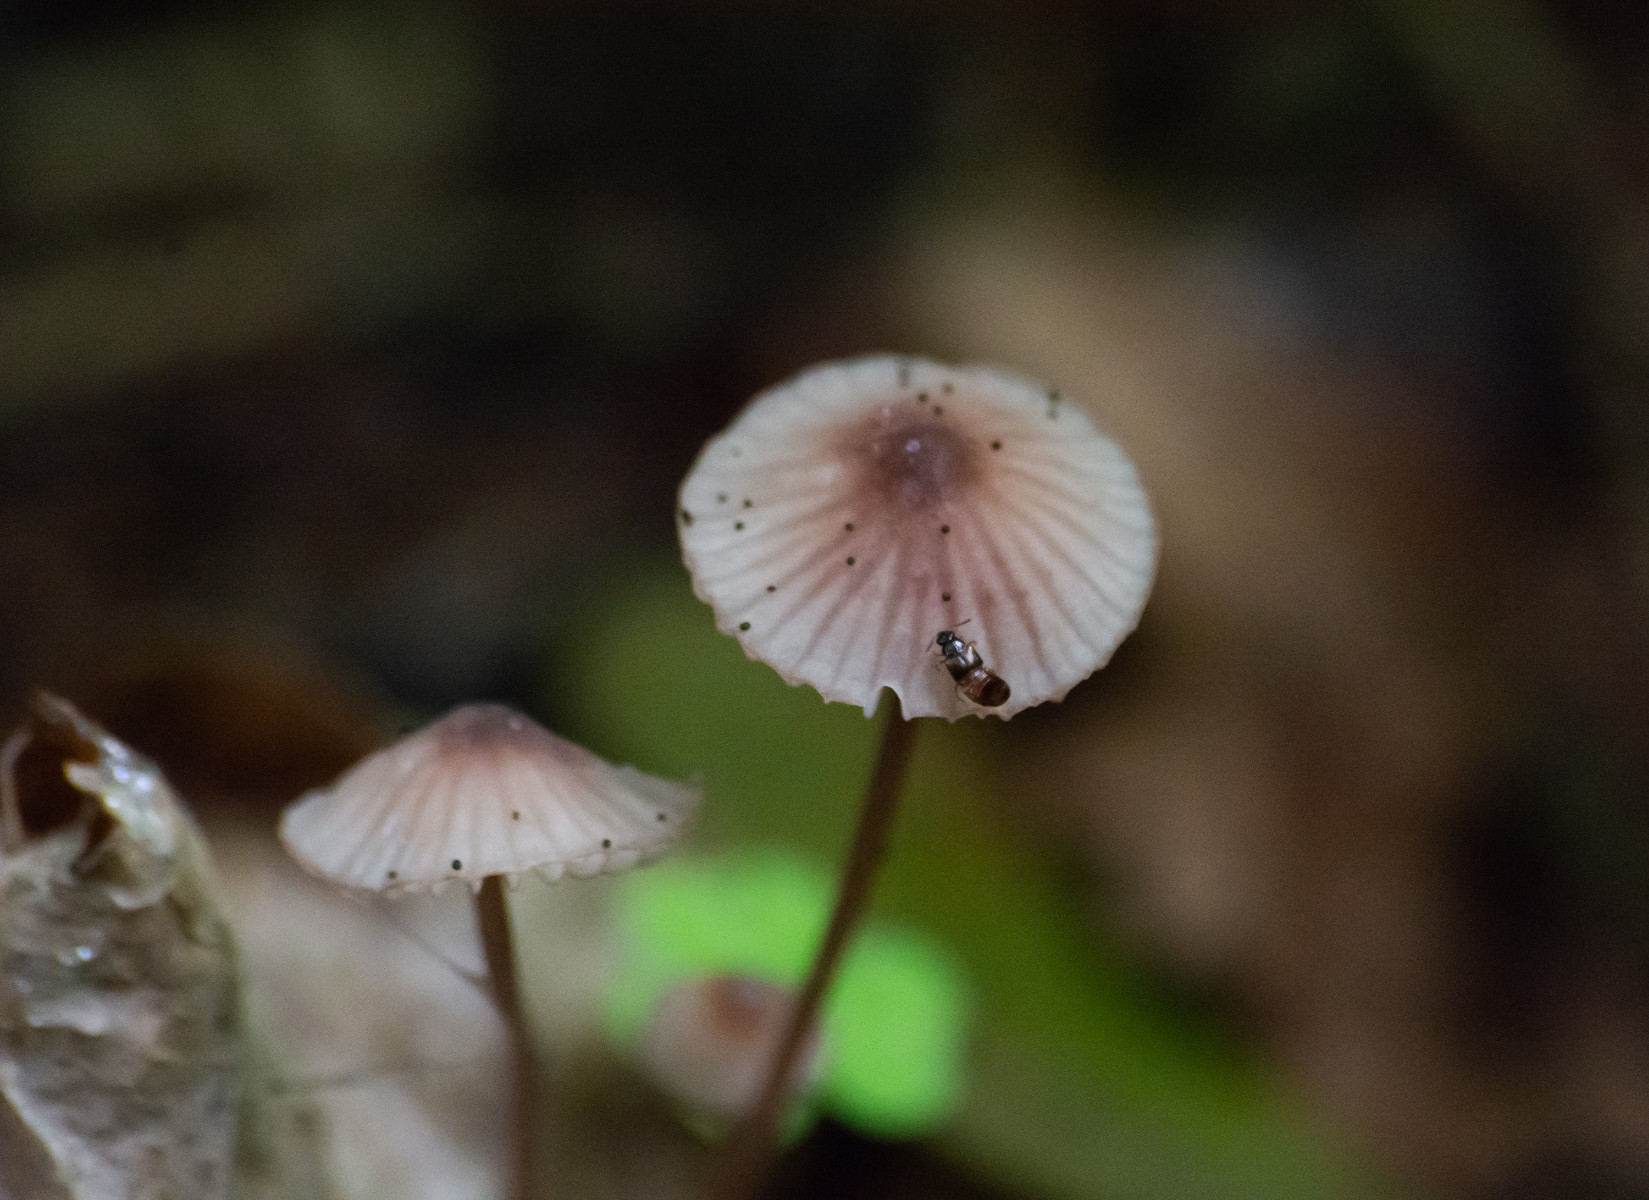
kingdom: Fungi
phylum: Basidiomycota
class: Agaricomycetes
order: Agaricales
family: Mycenaceae
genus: Mycena
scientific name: Mycena
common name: huesvamp
